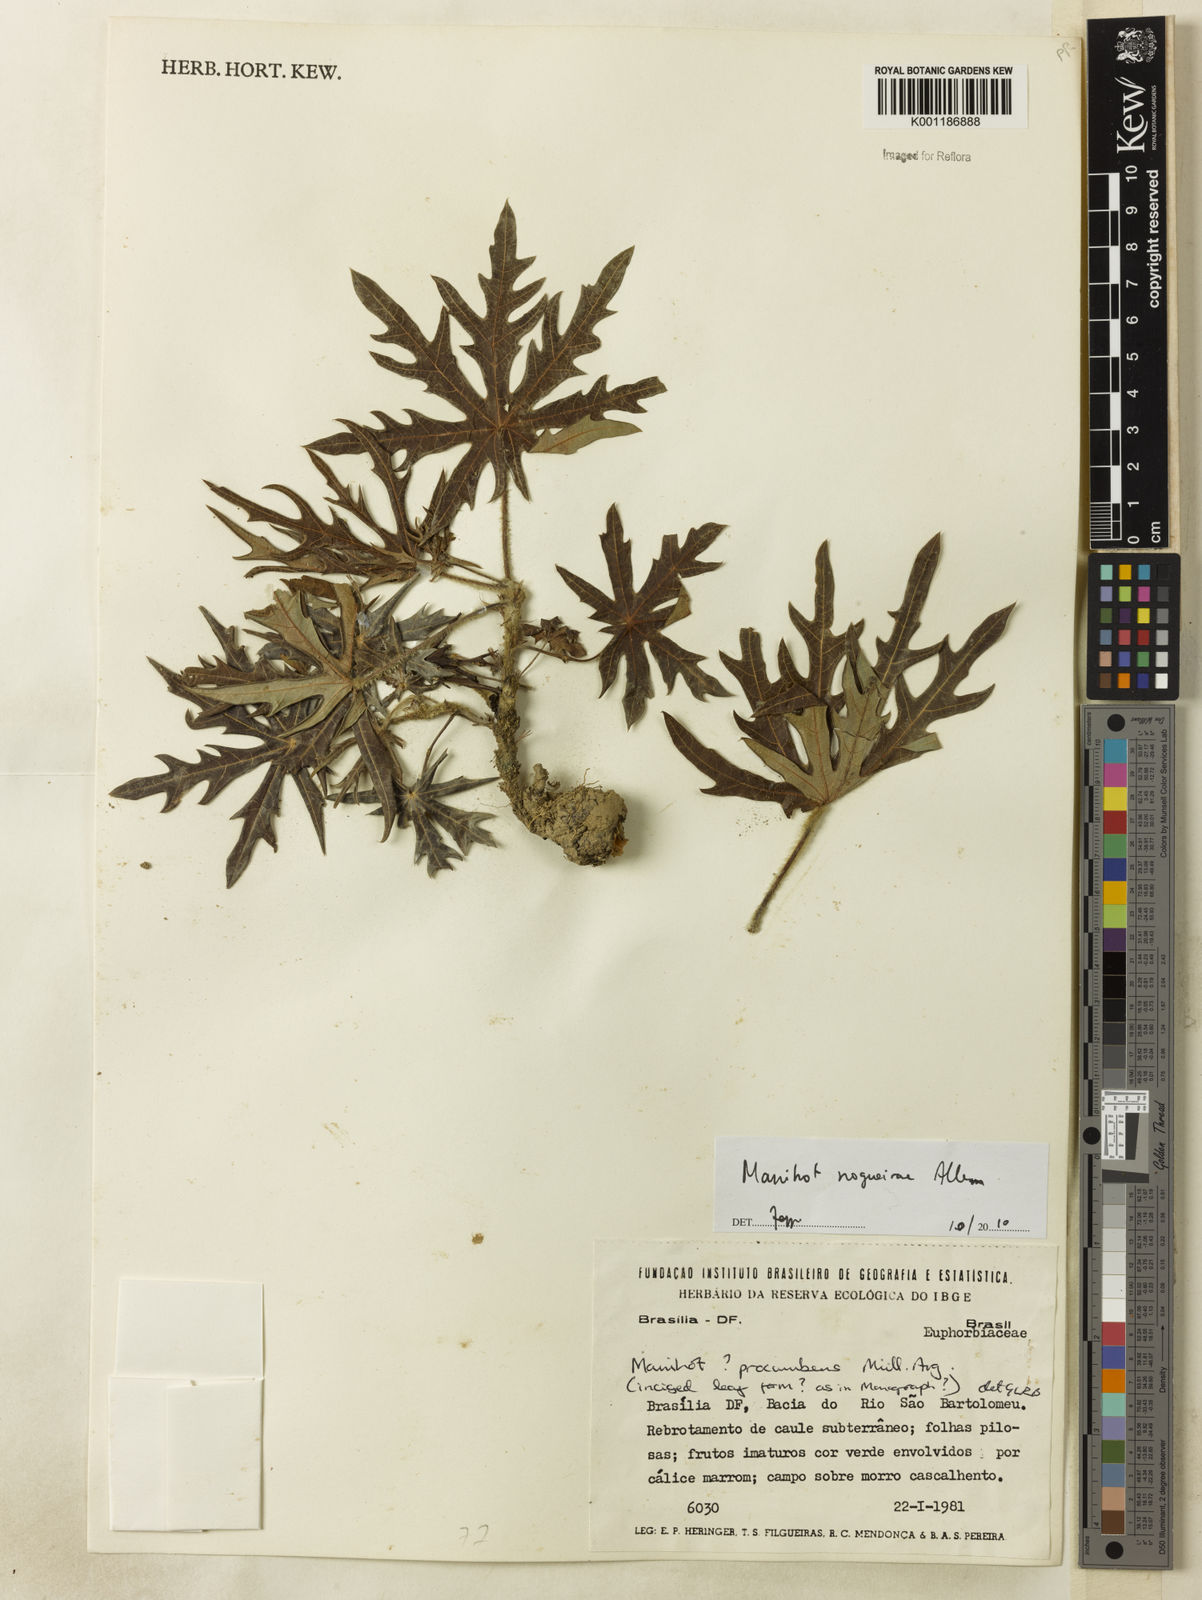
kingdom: Plantae
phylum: Tracheophyta
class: Magnoliopsida
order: Malpighiales
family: Euphorbiaceae
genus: Manihot
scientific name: Manihot nogueirae
